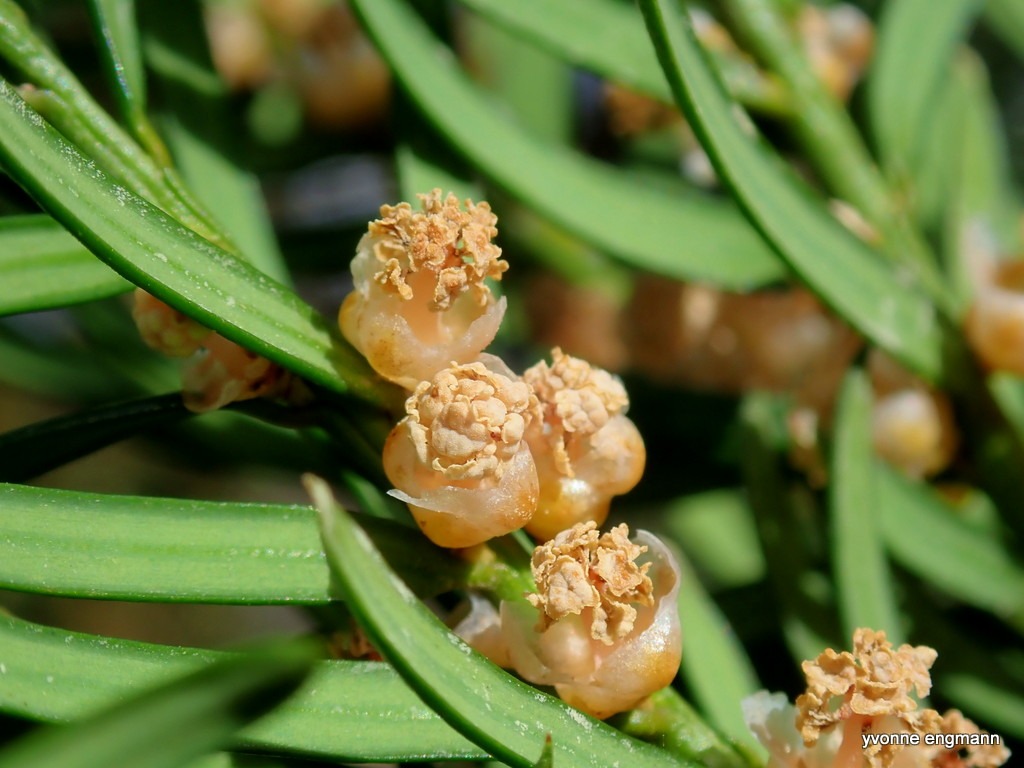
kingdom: Plantae
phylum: Tracheophyta
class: Pinopsida
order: Pinales
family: Taxaceae
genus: Taxus
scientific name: Taxus baccata
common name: Almindelig taks
